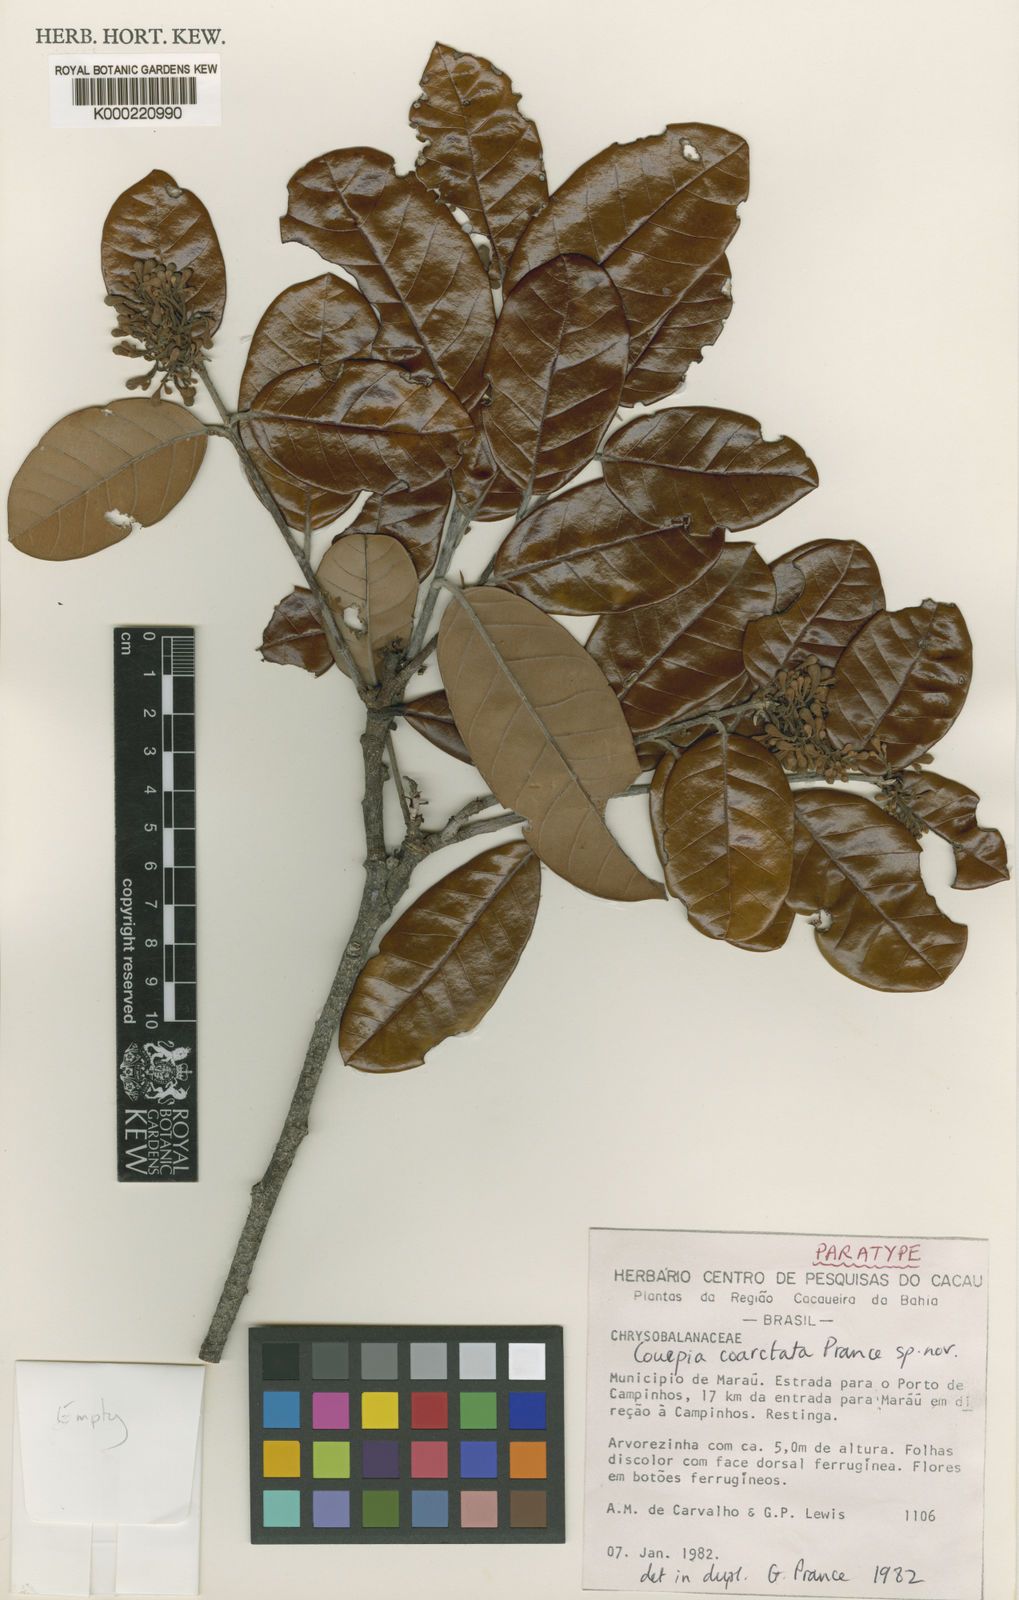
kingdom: Plantae
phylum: Tracheophyta
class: Magnoliopsida
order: Malpighiales
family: Chrysobalanaceae
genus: Couepia
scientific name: Couepia coarctata
